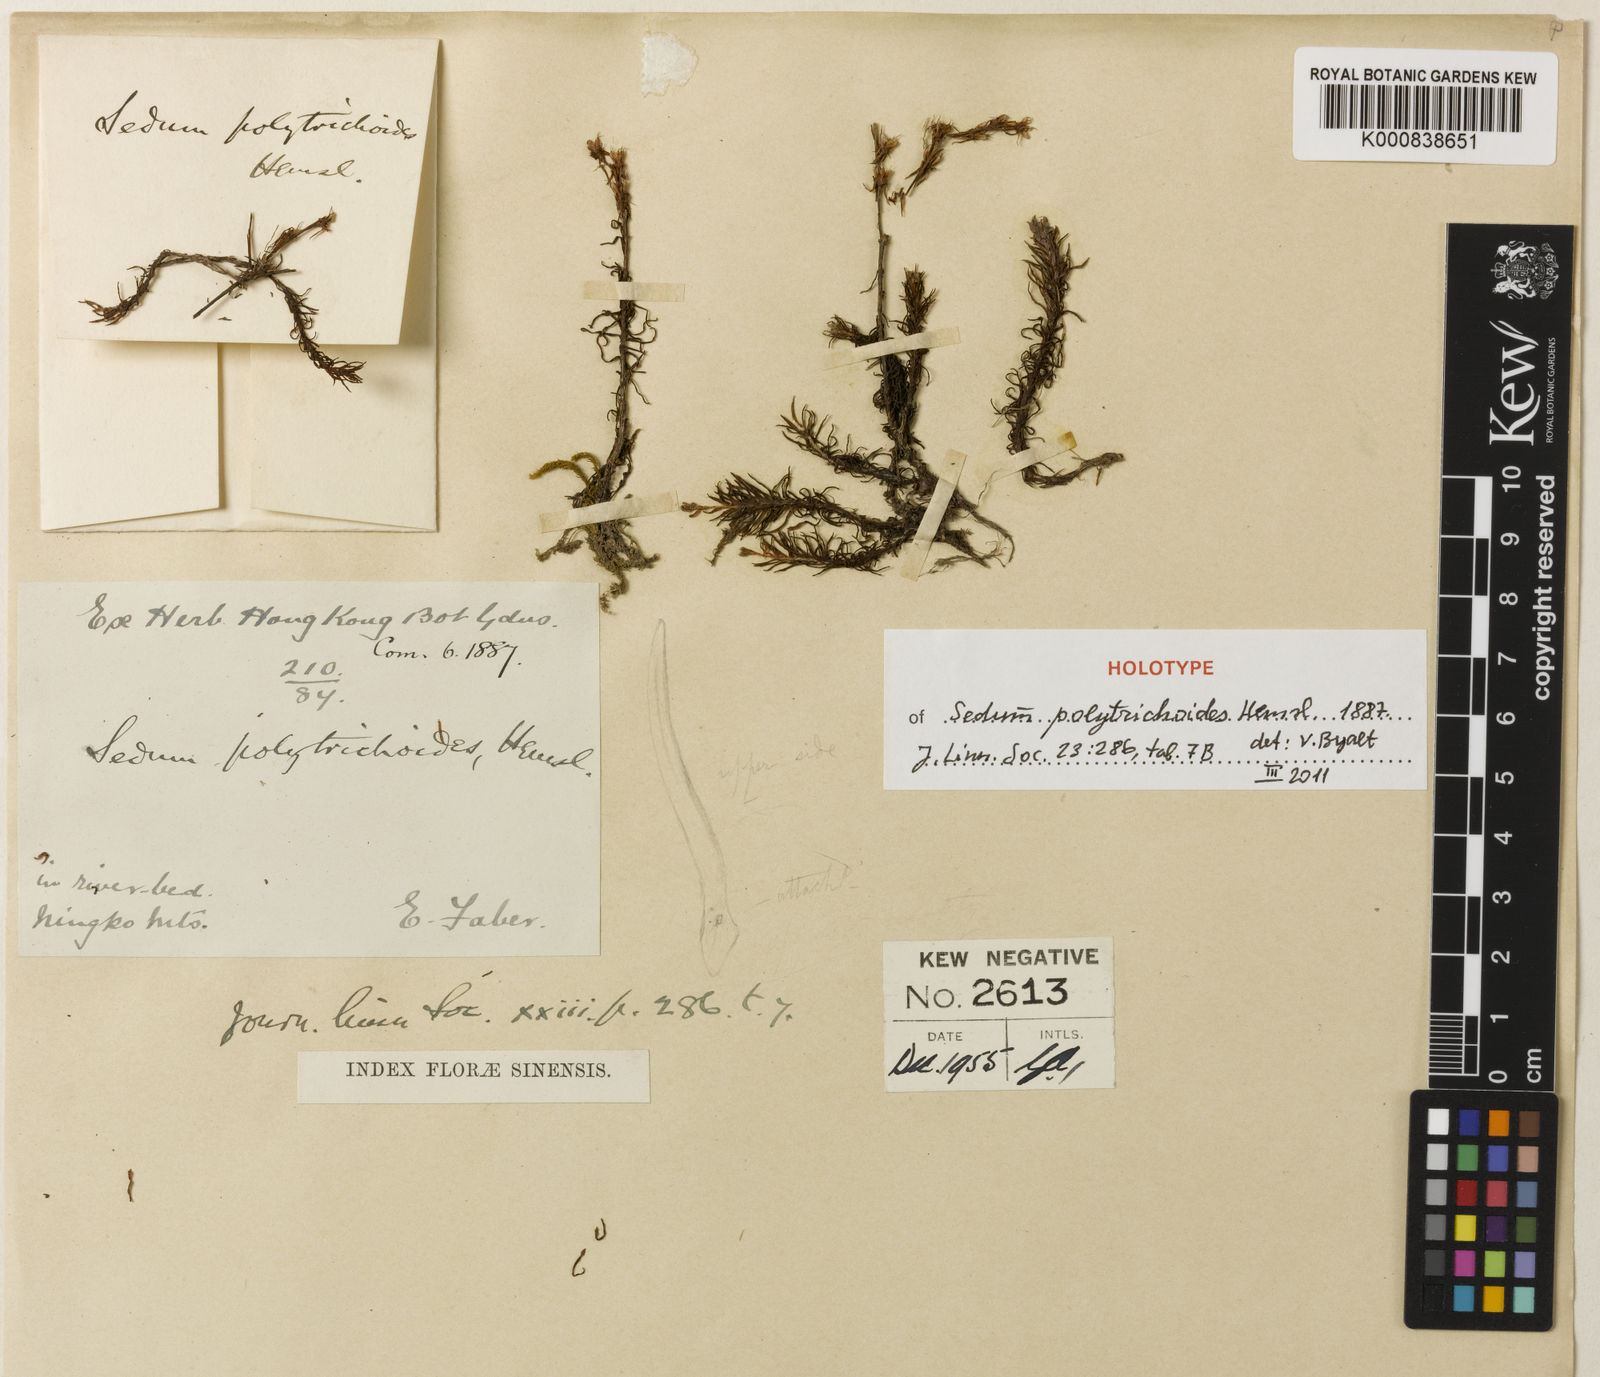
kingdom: Plantae
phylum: Tracheophyta
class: Magnoliopsida
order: Saxifragales
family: Crassulaceae
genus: Sedum
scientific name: Sedum polytrichoides
